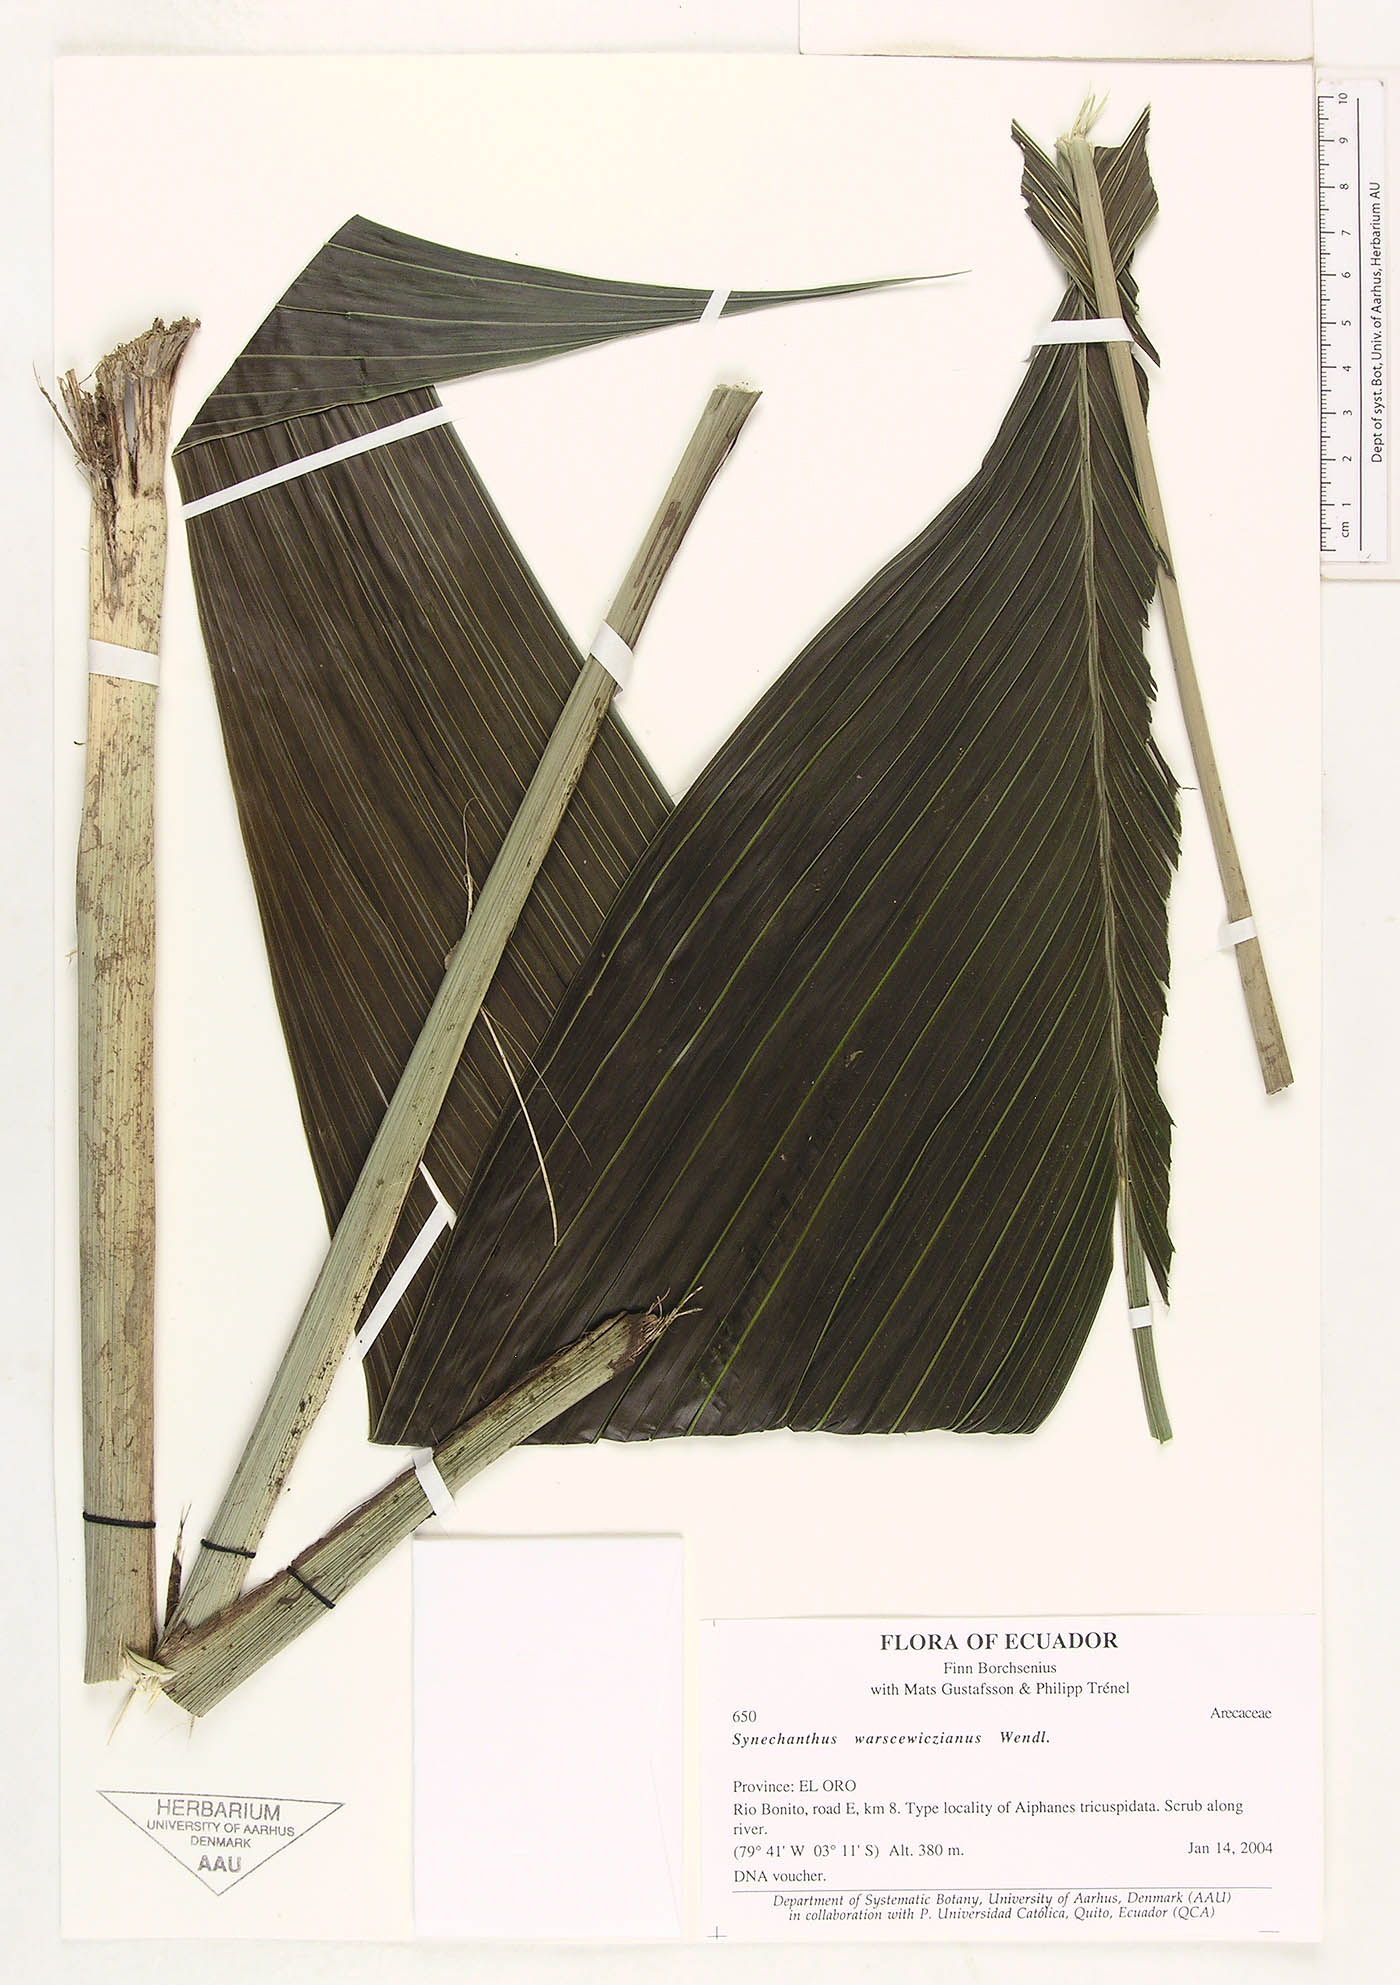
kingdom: Plantae
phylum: Tracheophyta
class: Liliopsida
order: Arecales
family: Arecaceae
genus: Synechanthus
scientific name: Synechanthus warscewiczianus
